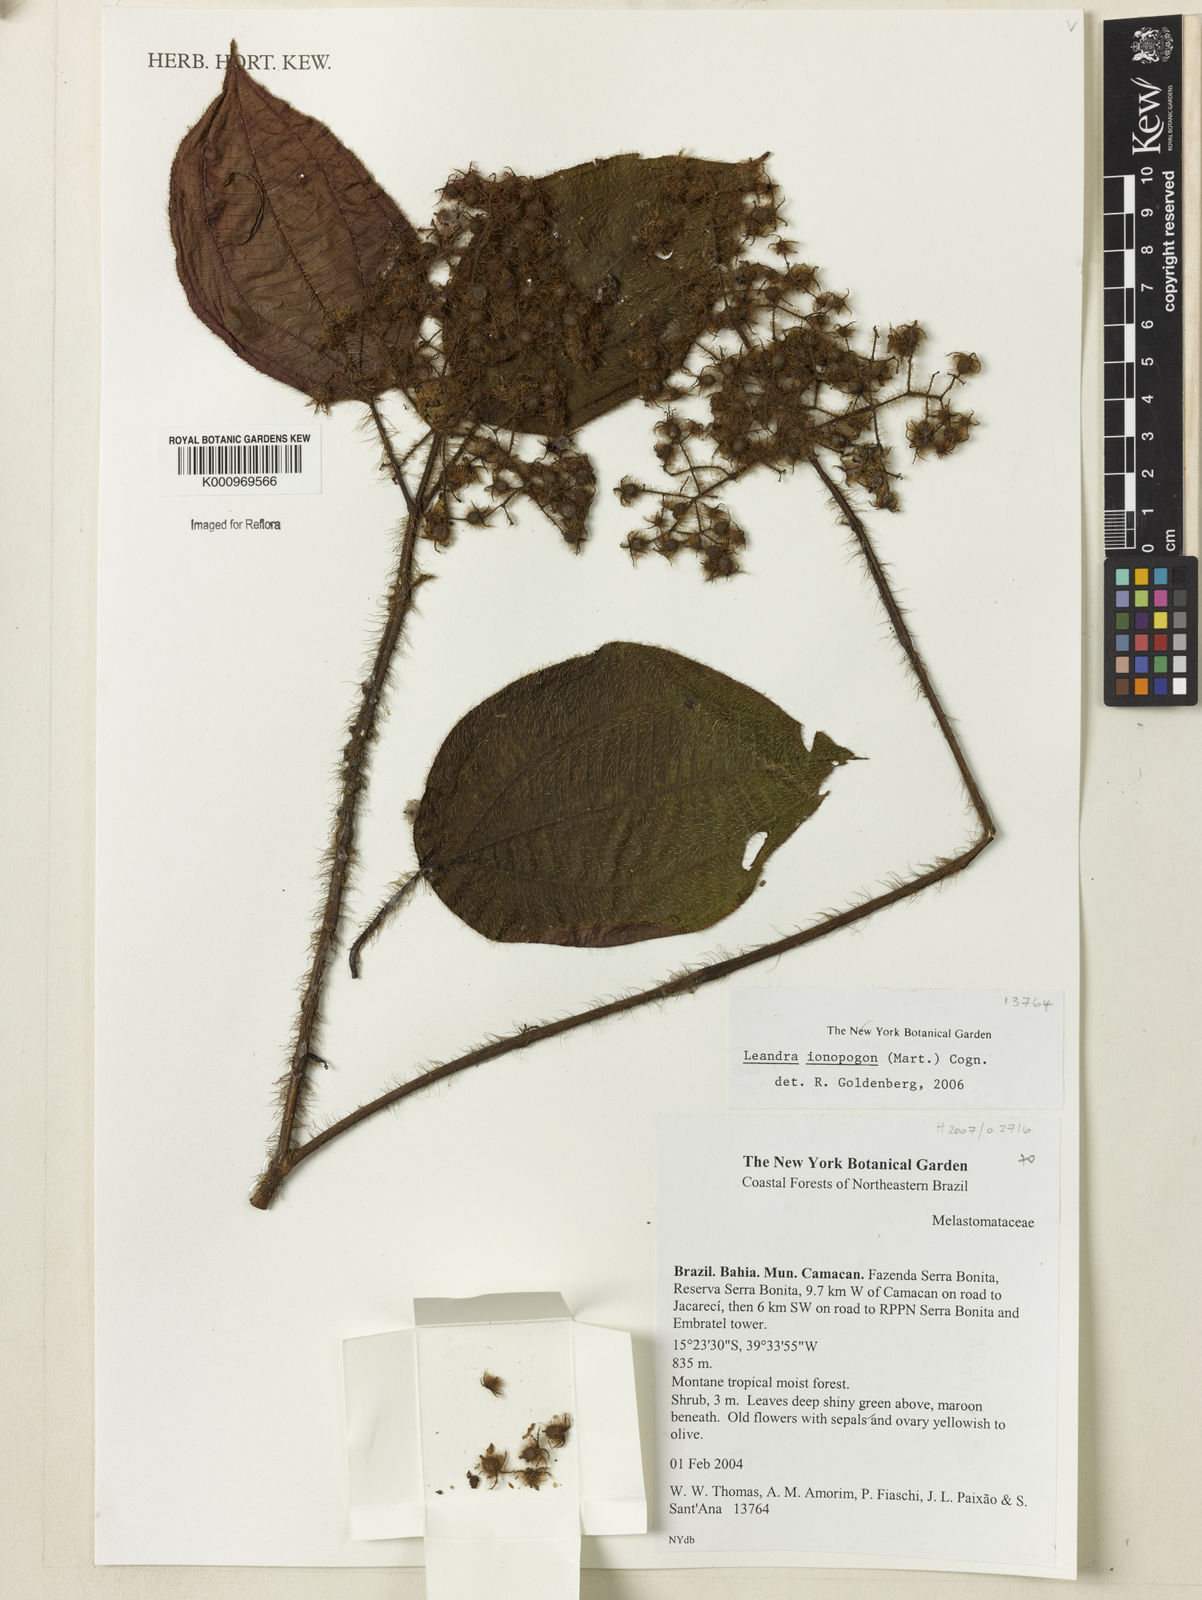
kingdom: Plantae
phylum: Tracheophyta
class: Magnoliopsida
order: Myrtales
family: Melastomataceae
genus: Miconia
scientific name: Miconia ionopogon
